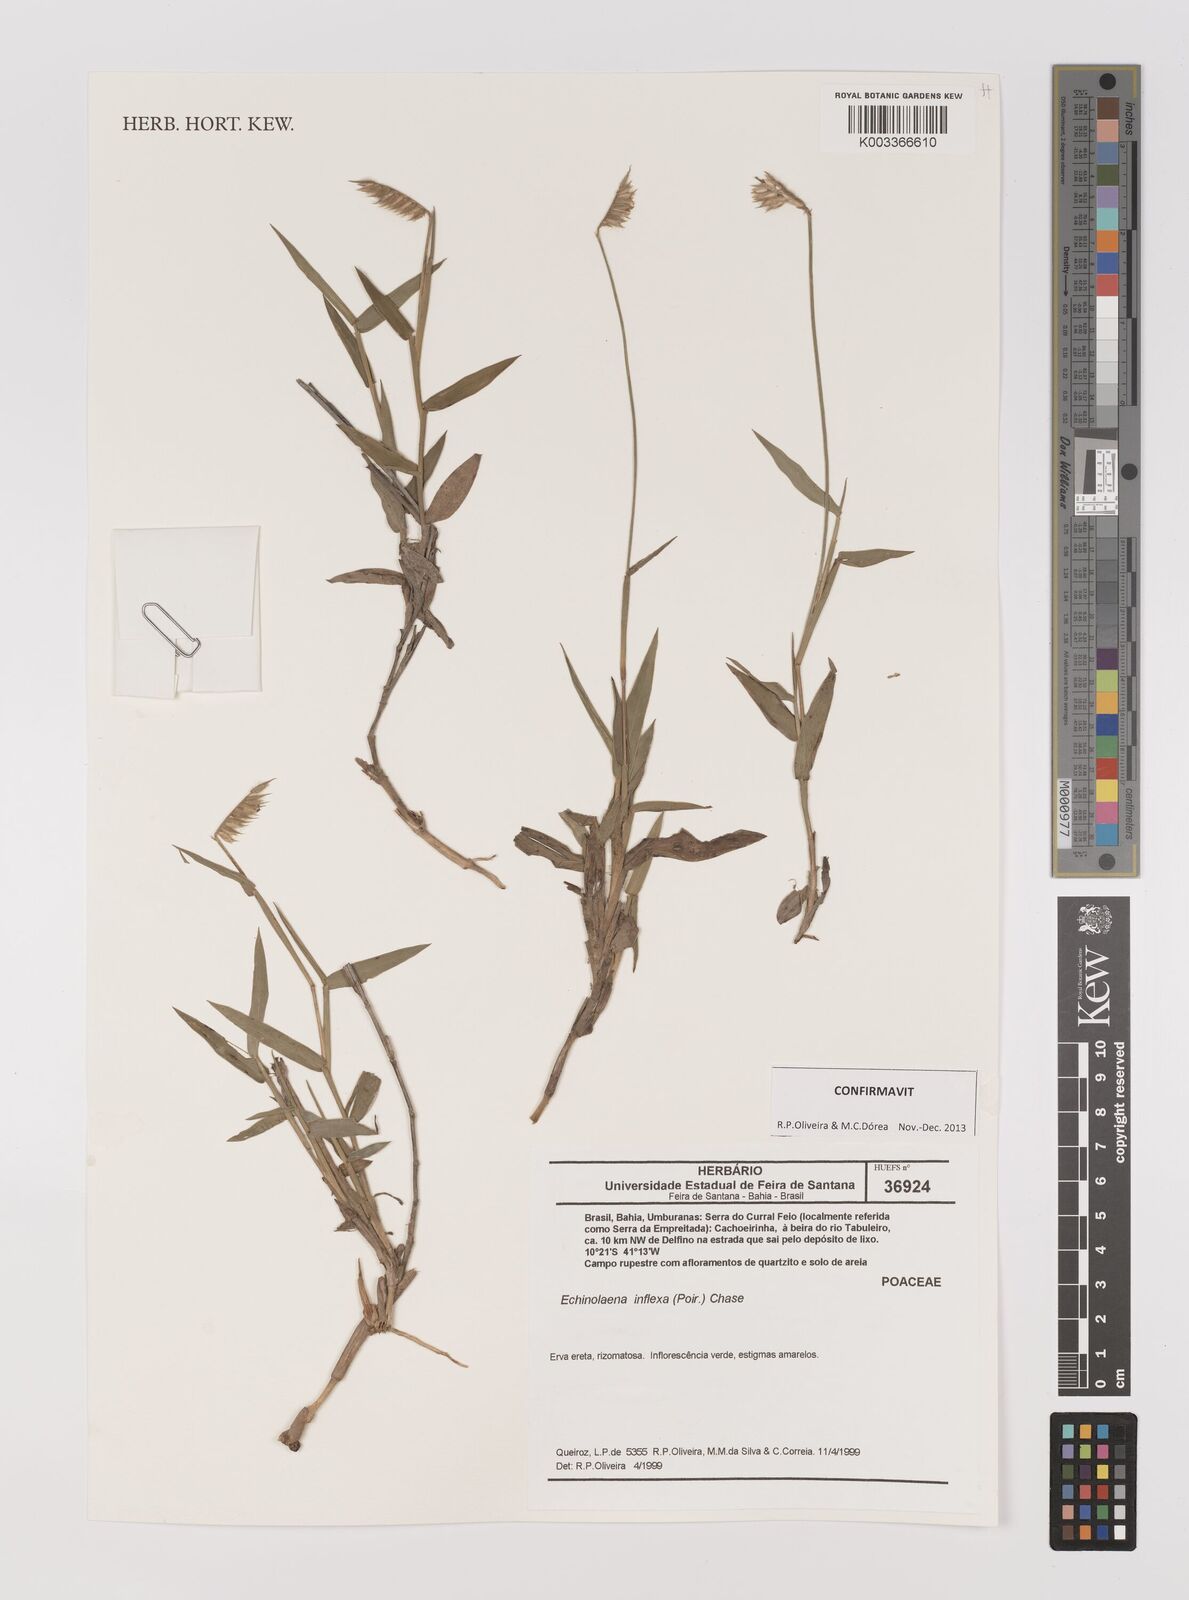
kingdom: Plantae
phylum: Tracheophyta
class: Liliopsida
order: Poales
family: Poaceae
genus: Echinolaena
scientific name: Echinolaena inflexa
